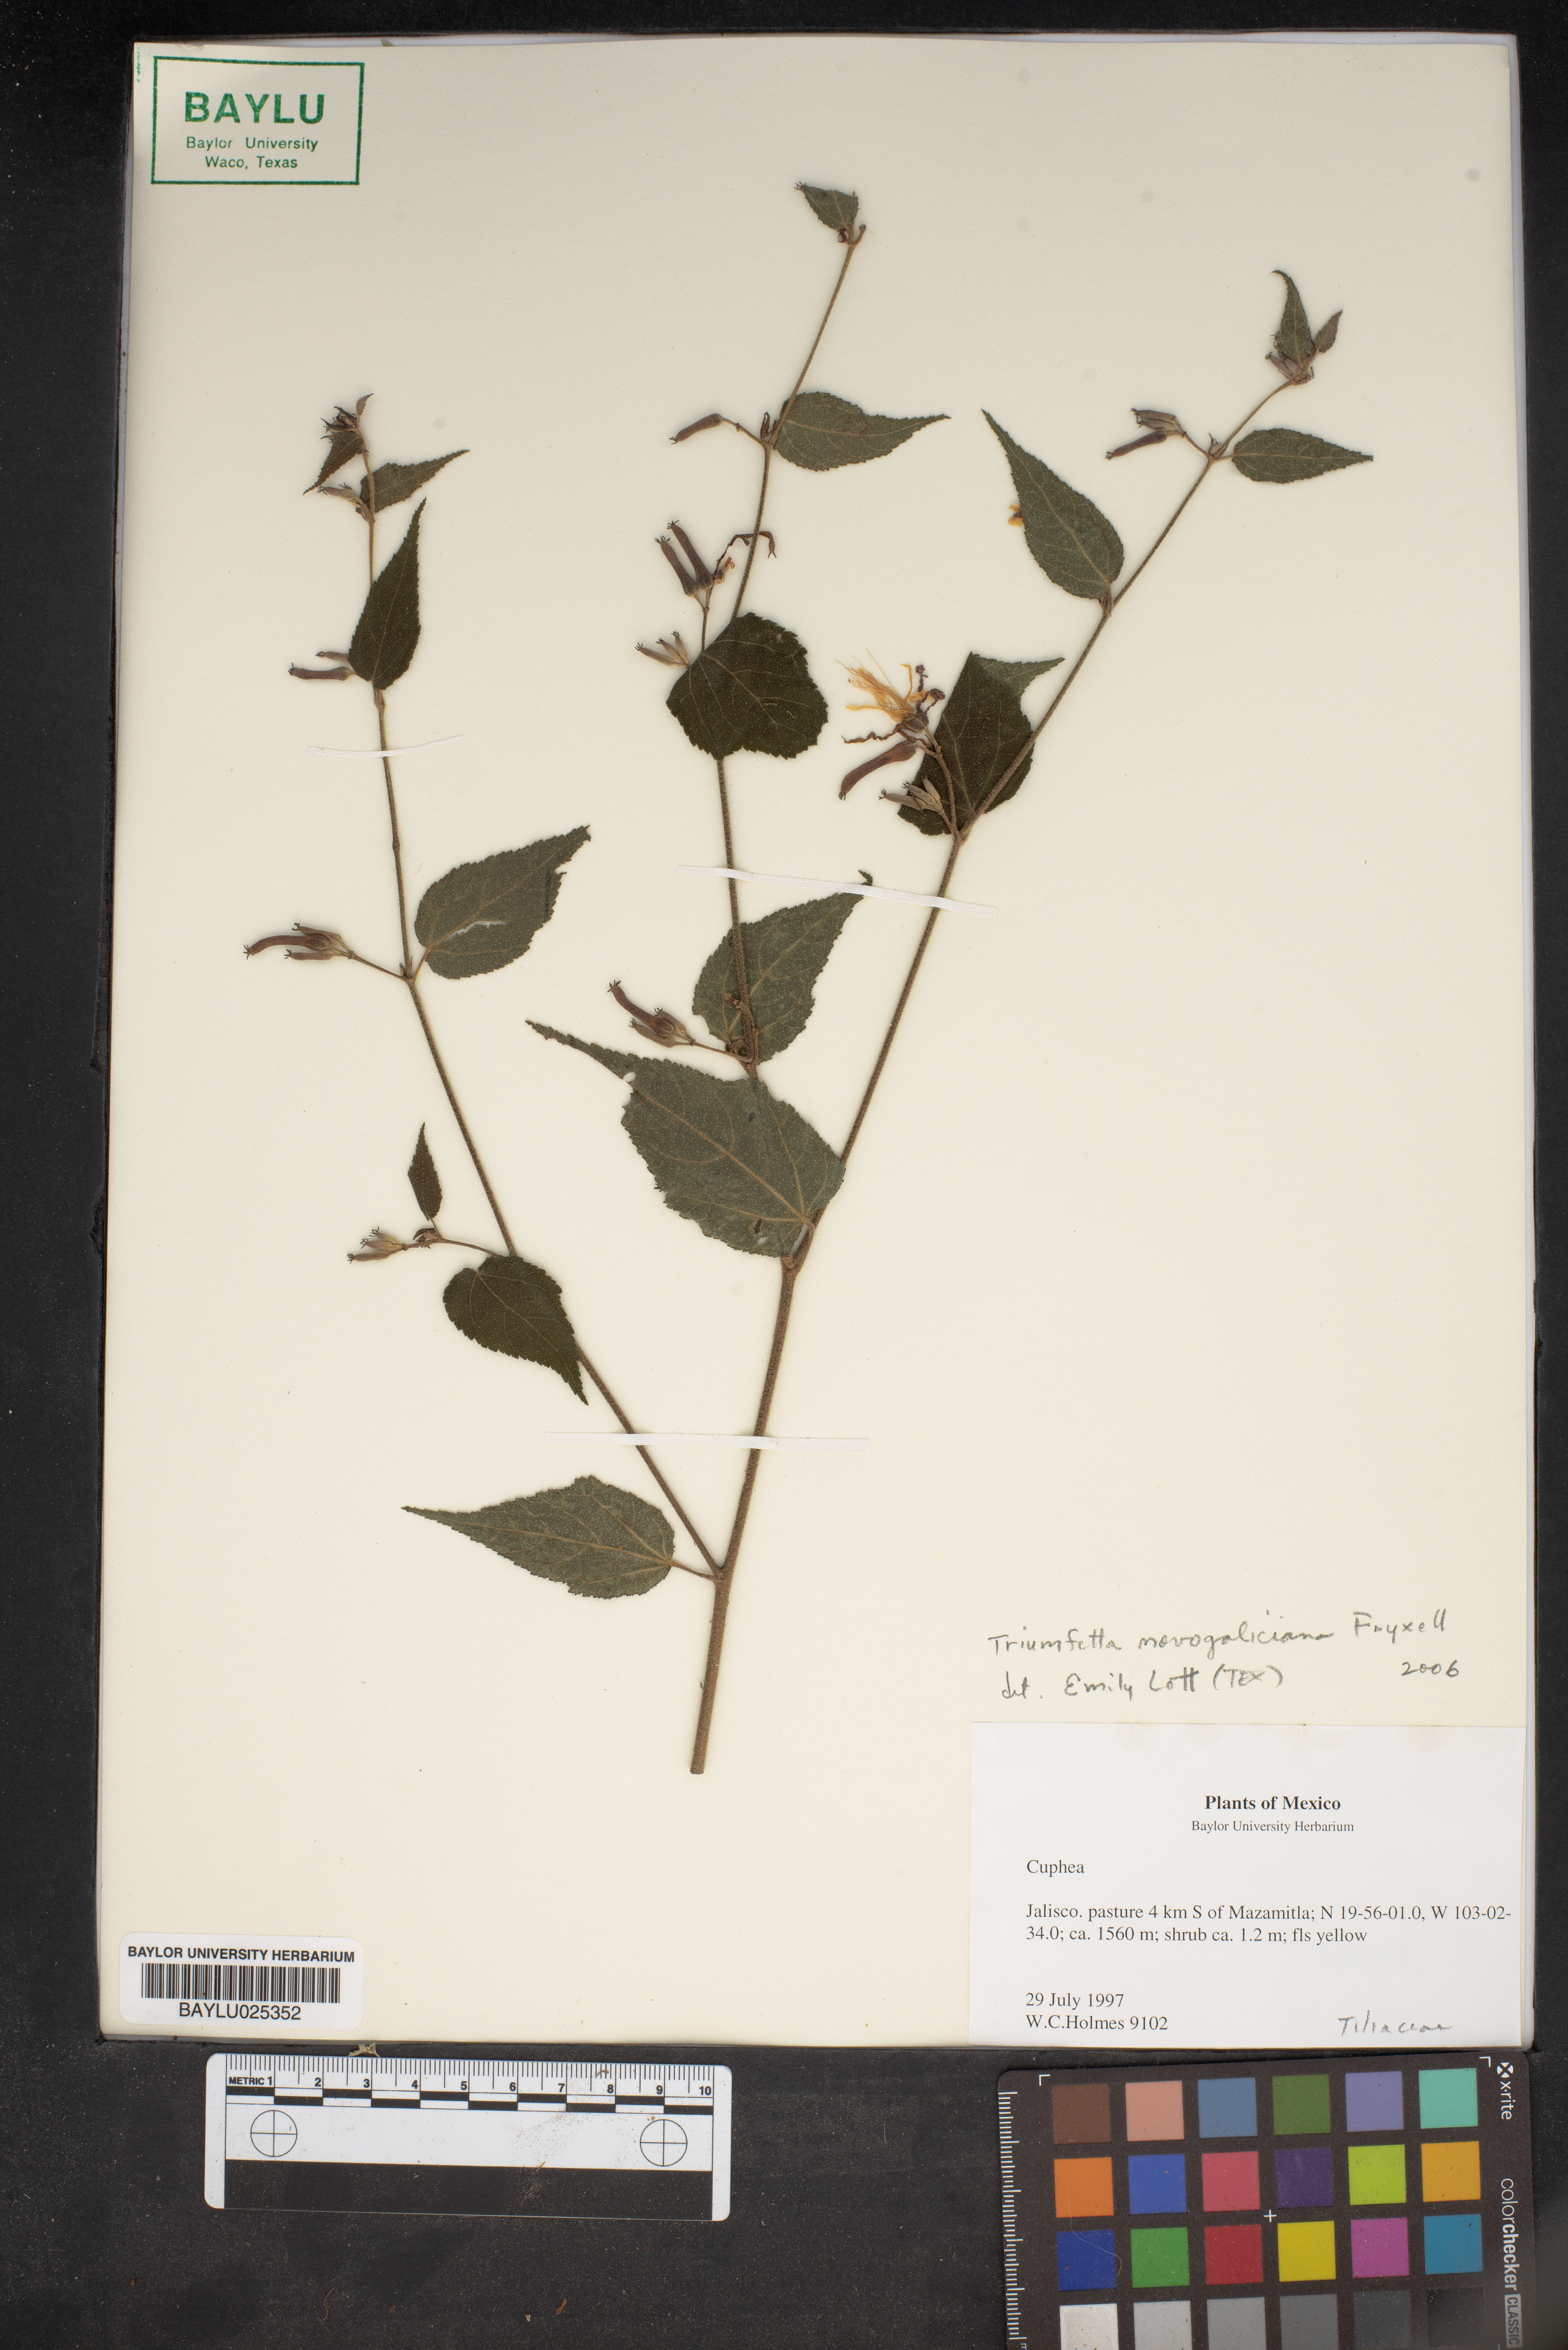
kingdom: Plantae
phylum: Tracheophyta
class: Magnoliopsida
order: Malvales
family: Malvaceae
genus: Triumfetta
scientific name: Triumfetta novogaliciana
